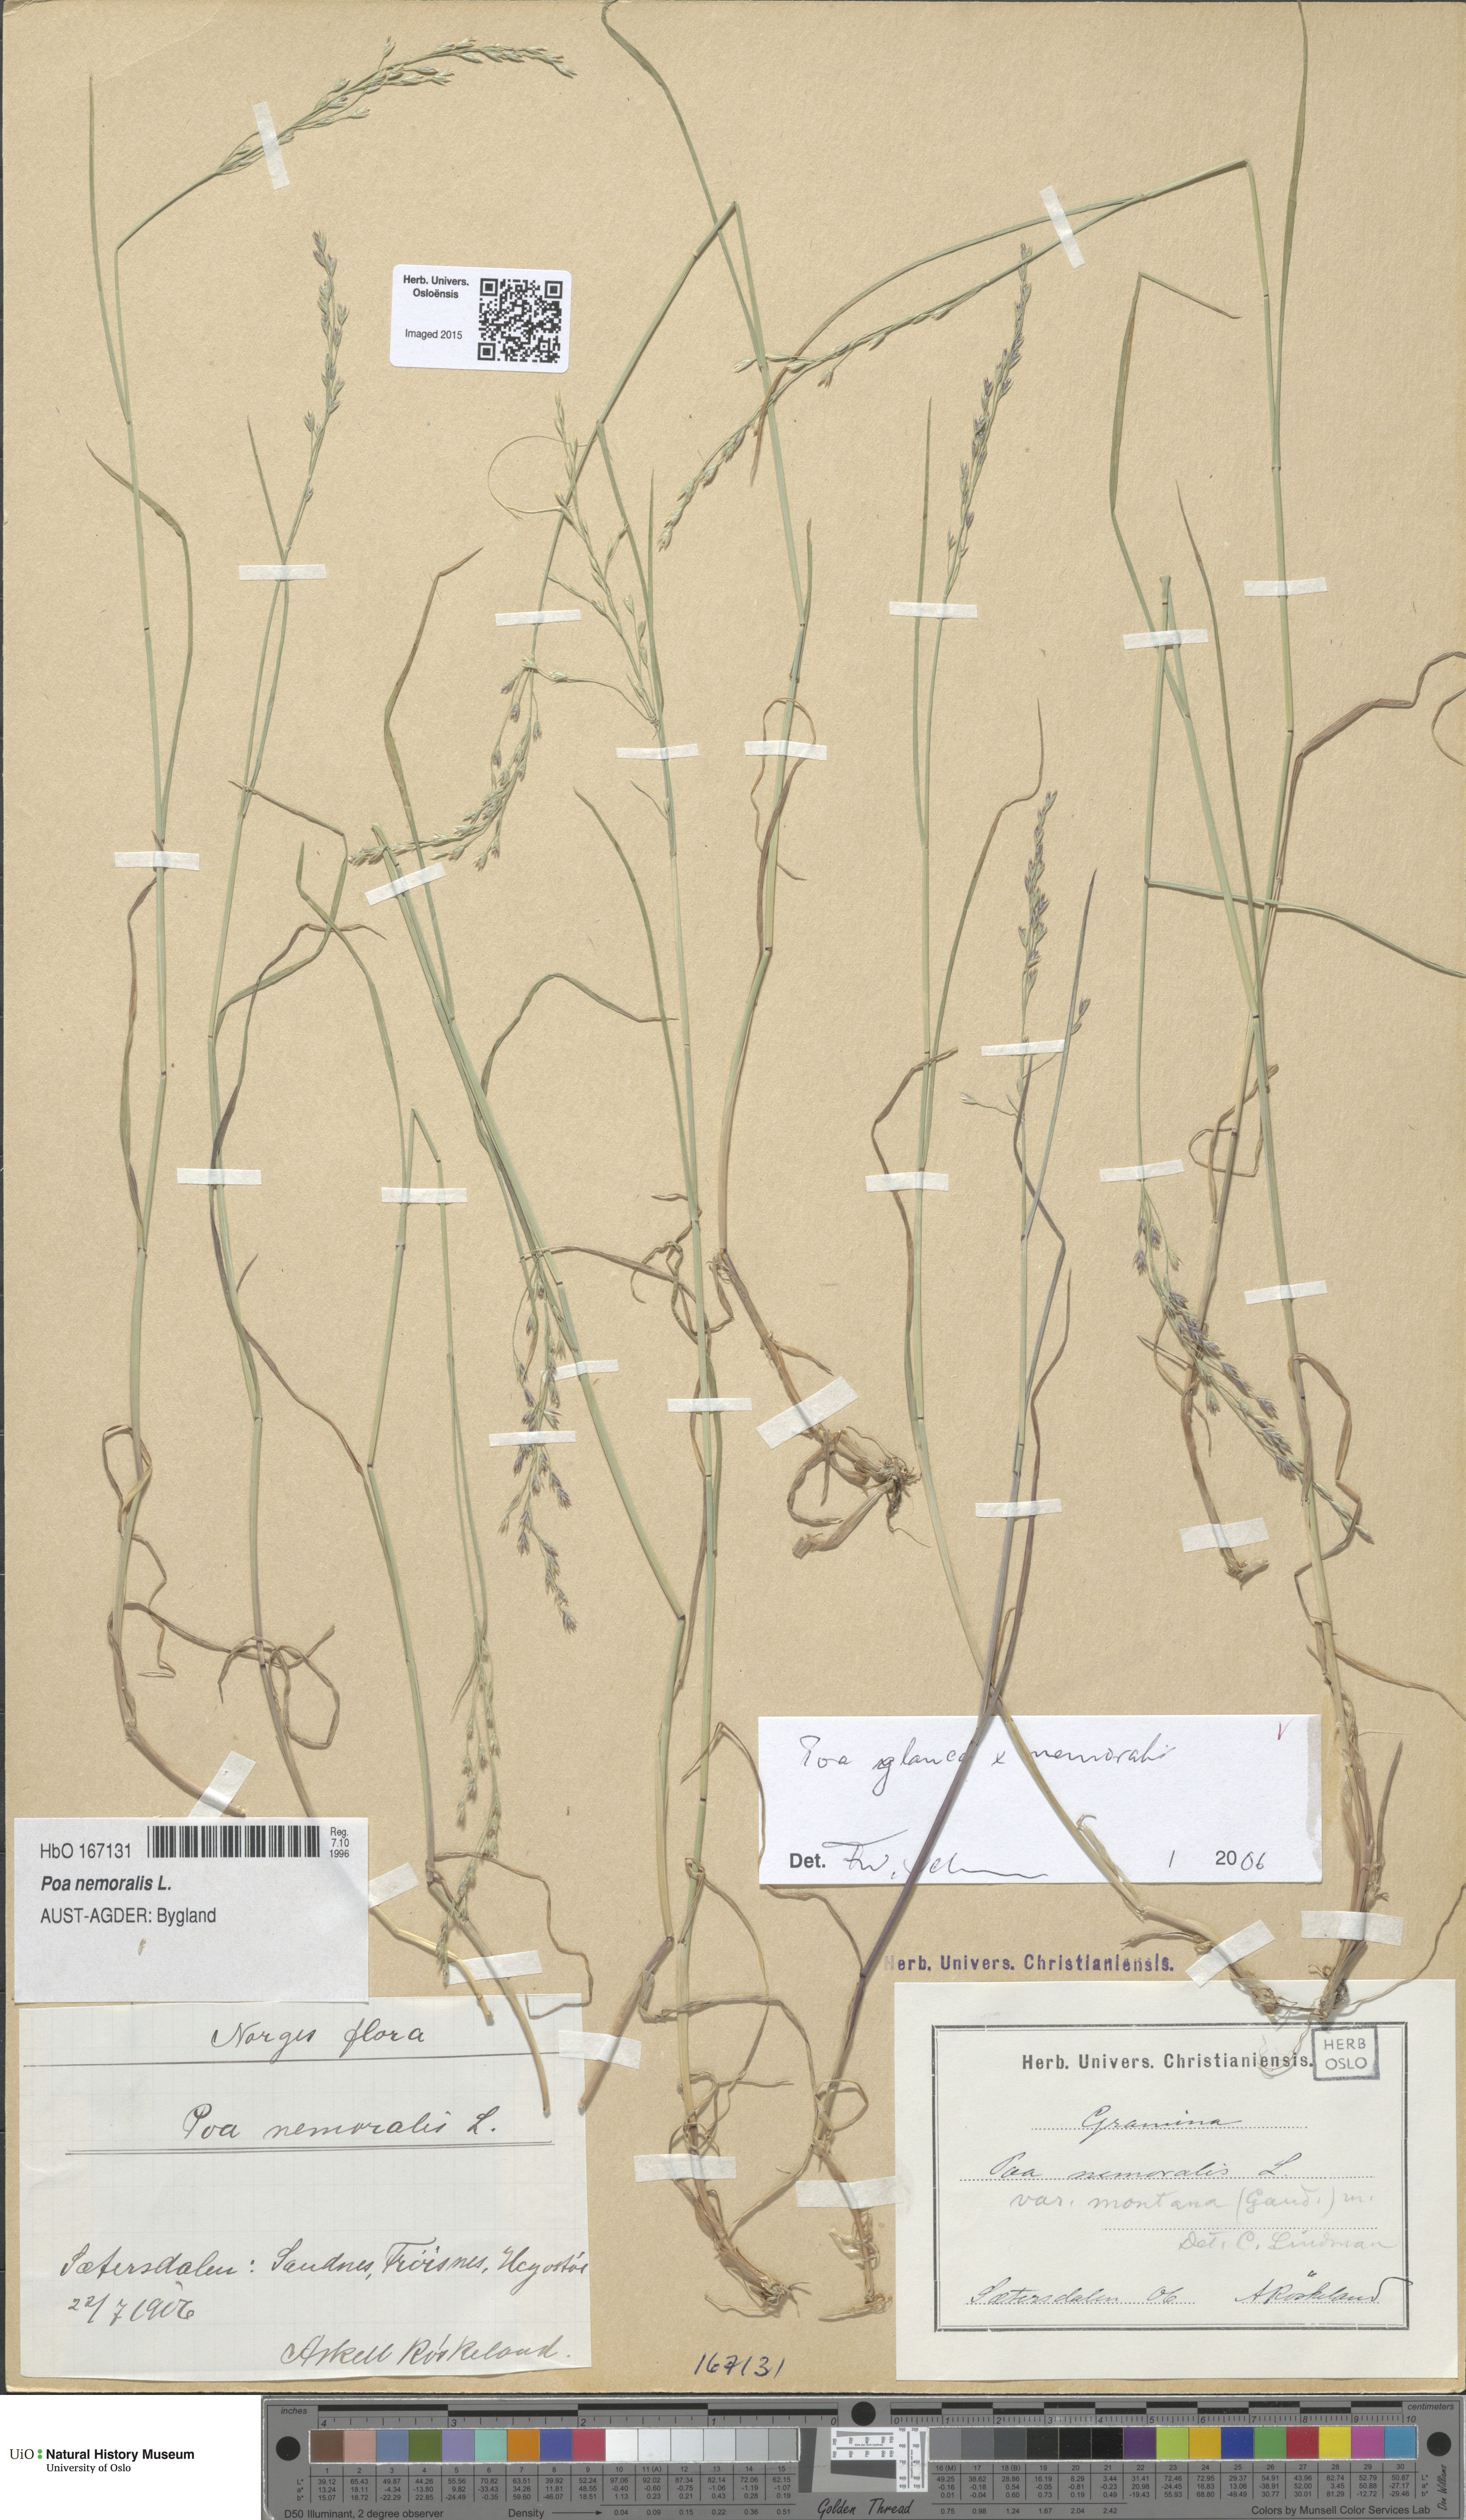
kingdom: Plantae
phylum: Tracheophyta
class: Liliopsida
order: Poales
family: Poaceae
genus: Poa
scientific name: Poa
